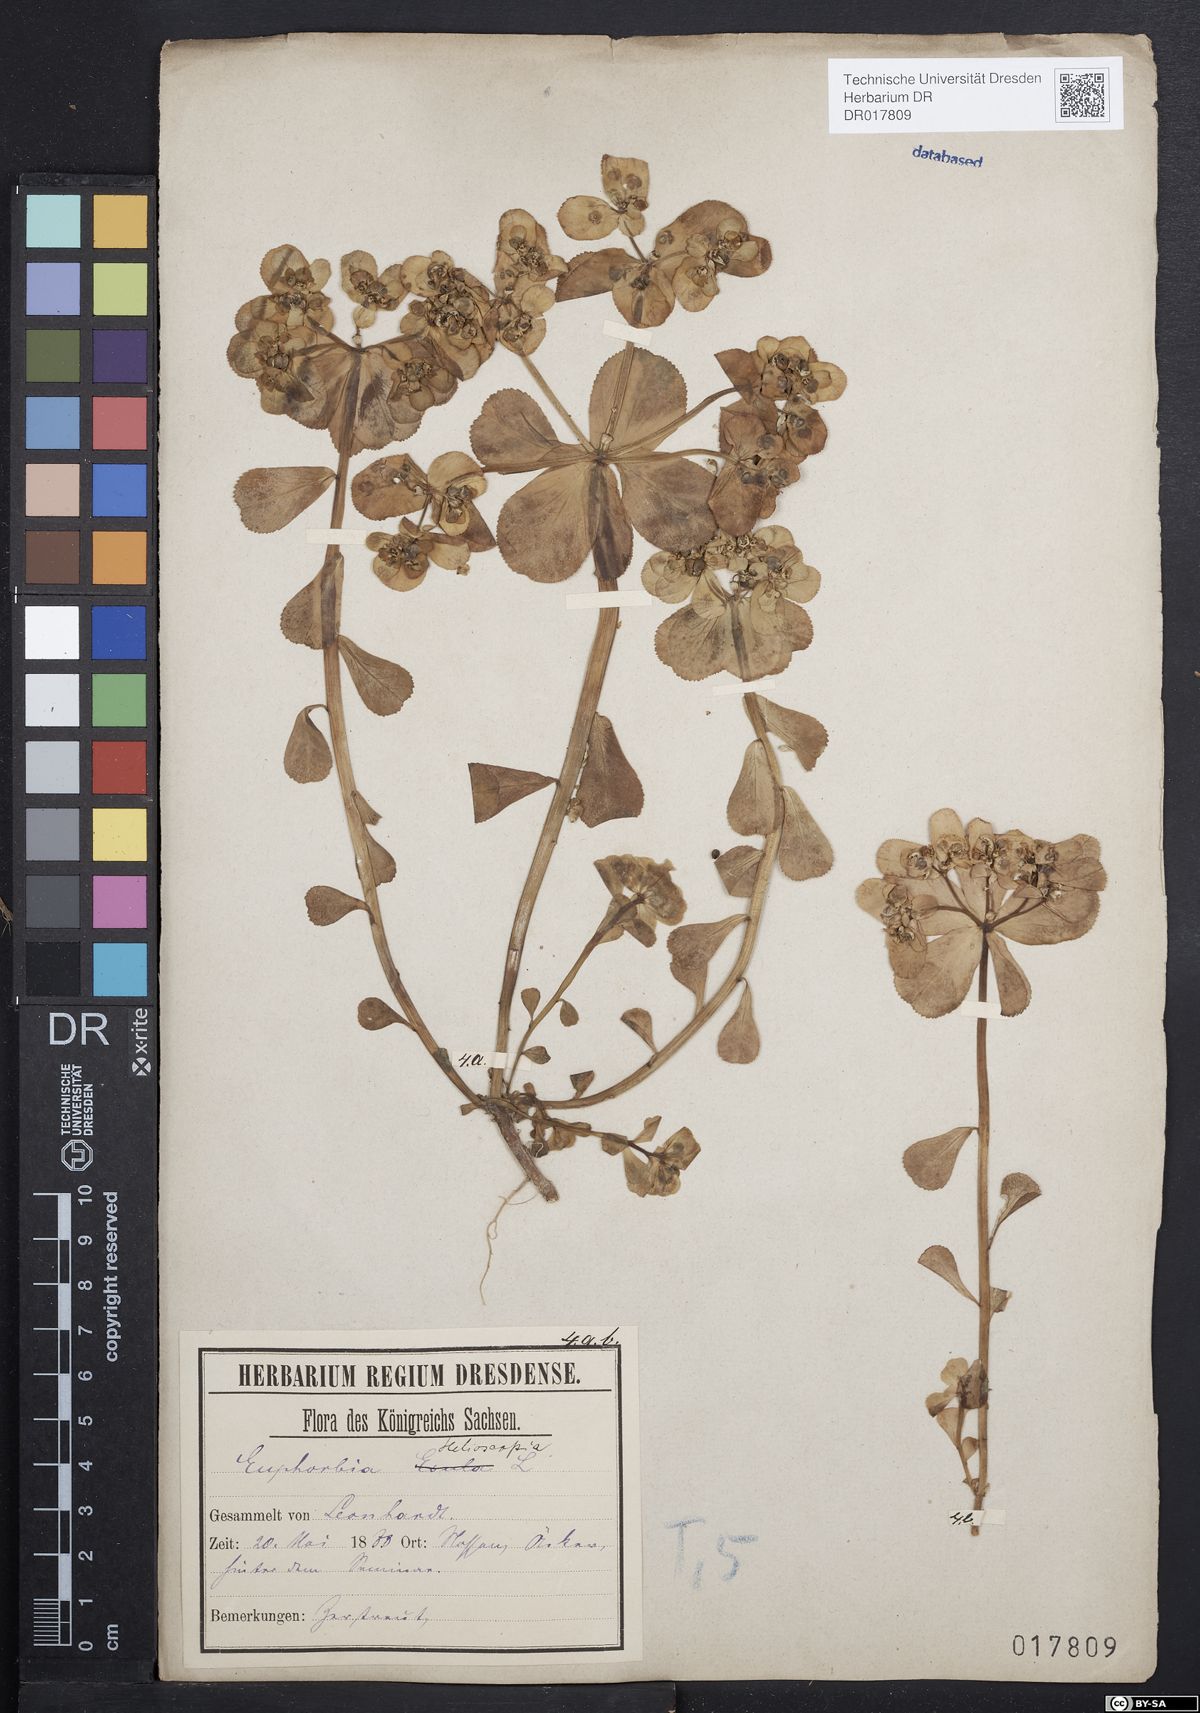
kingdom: Plantae
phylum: Tracheophyta
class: Magnoliopsida
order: Malpighiales
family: Euphorbiaceae
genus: Euphorbia
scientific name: Euphorbia helioscopia
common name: Sun spurge
